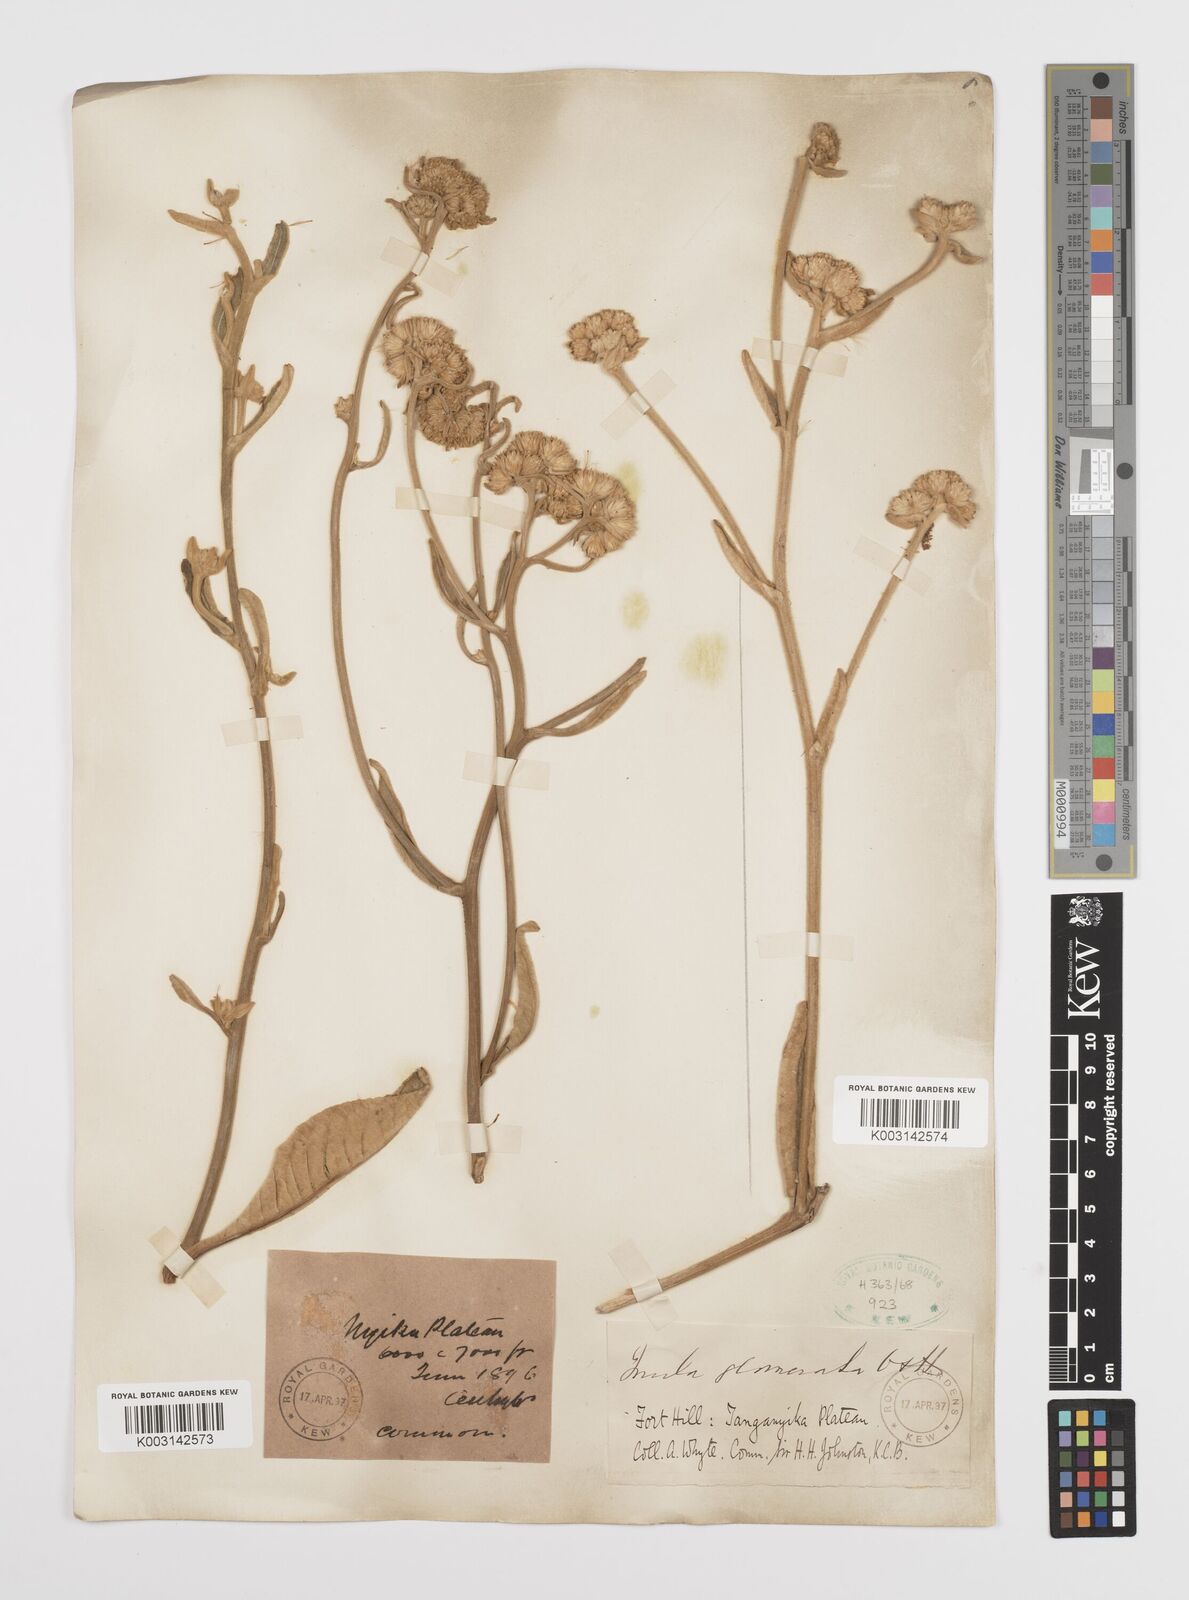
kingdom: Plantae
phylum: Tracheophyta
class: Magnoliopsida
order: Asterales
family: Asteraceae
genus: Inula
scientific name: Inula glomerata
